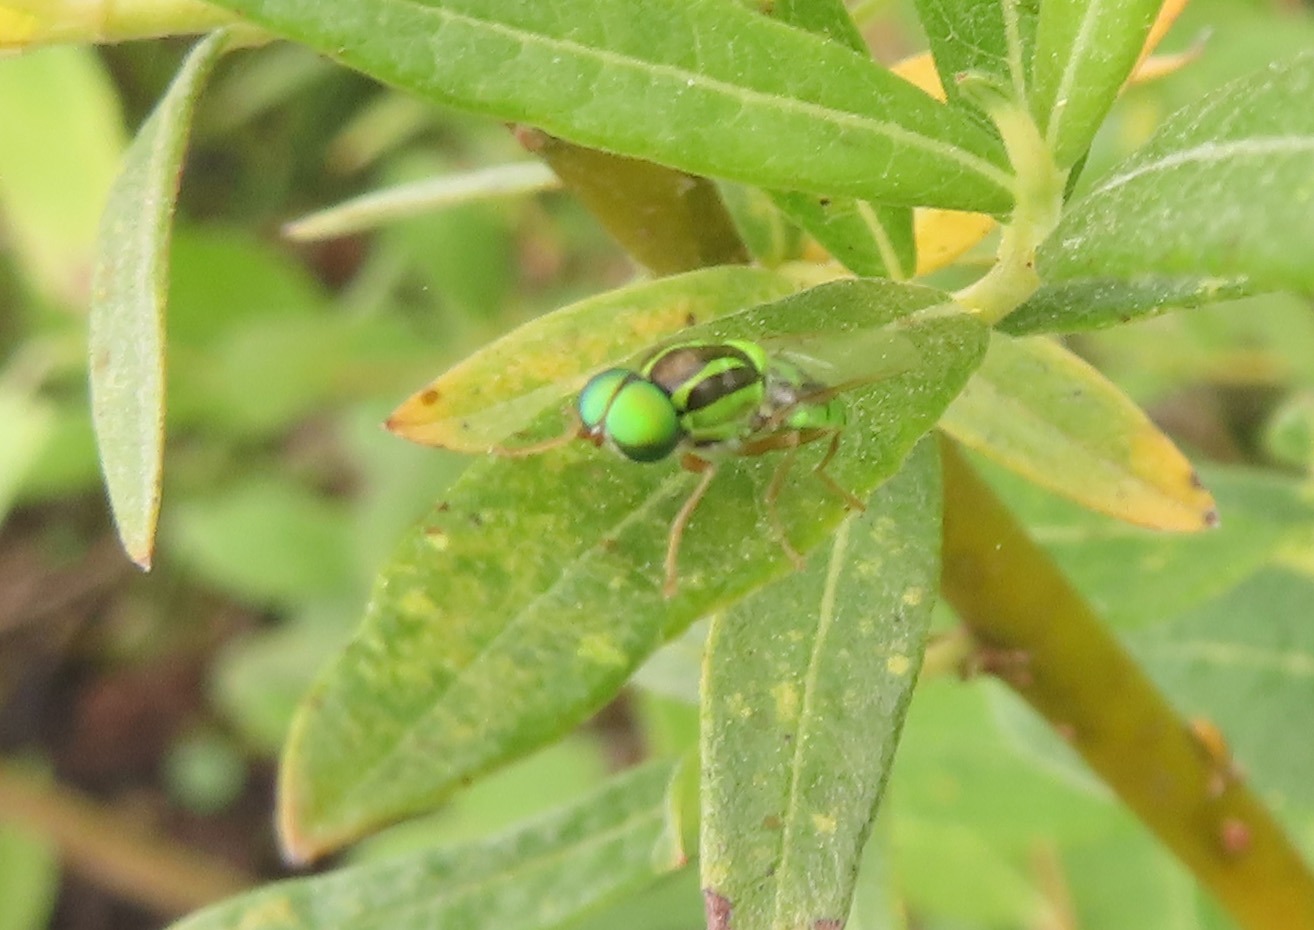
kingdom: Animalia
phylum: Arthropoda
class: Insecta
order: Diptera
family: Stratiomyidae
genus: Oxycera
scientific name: Oxycera trilineata
